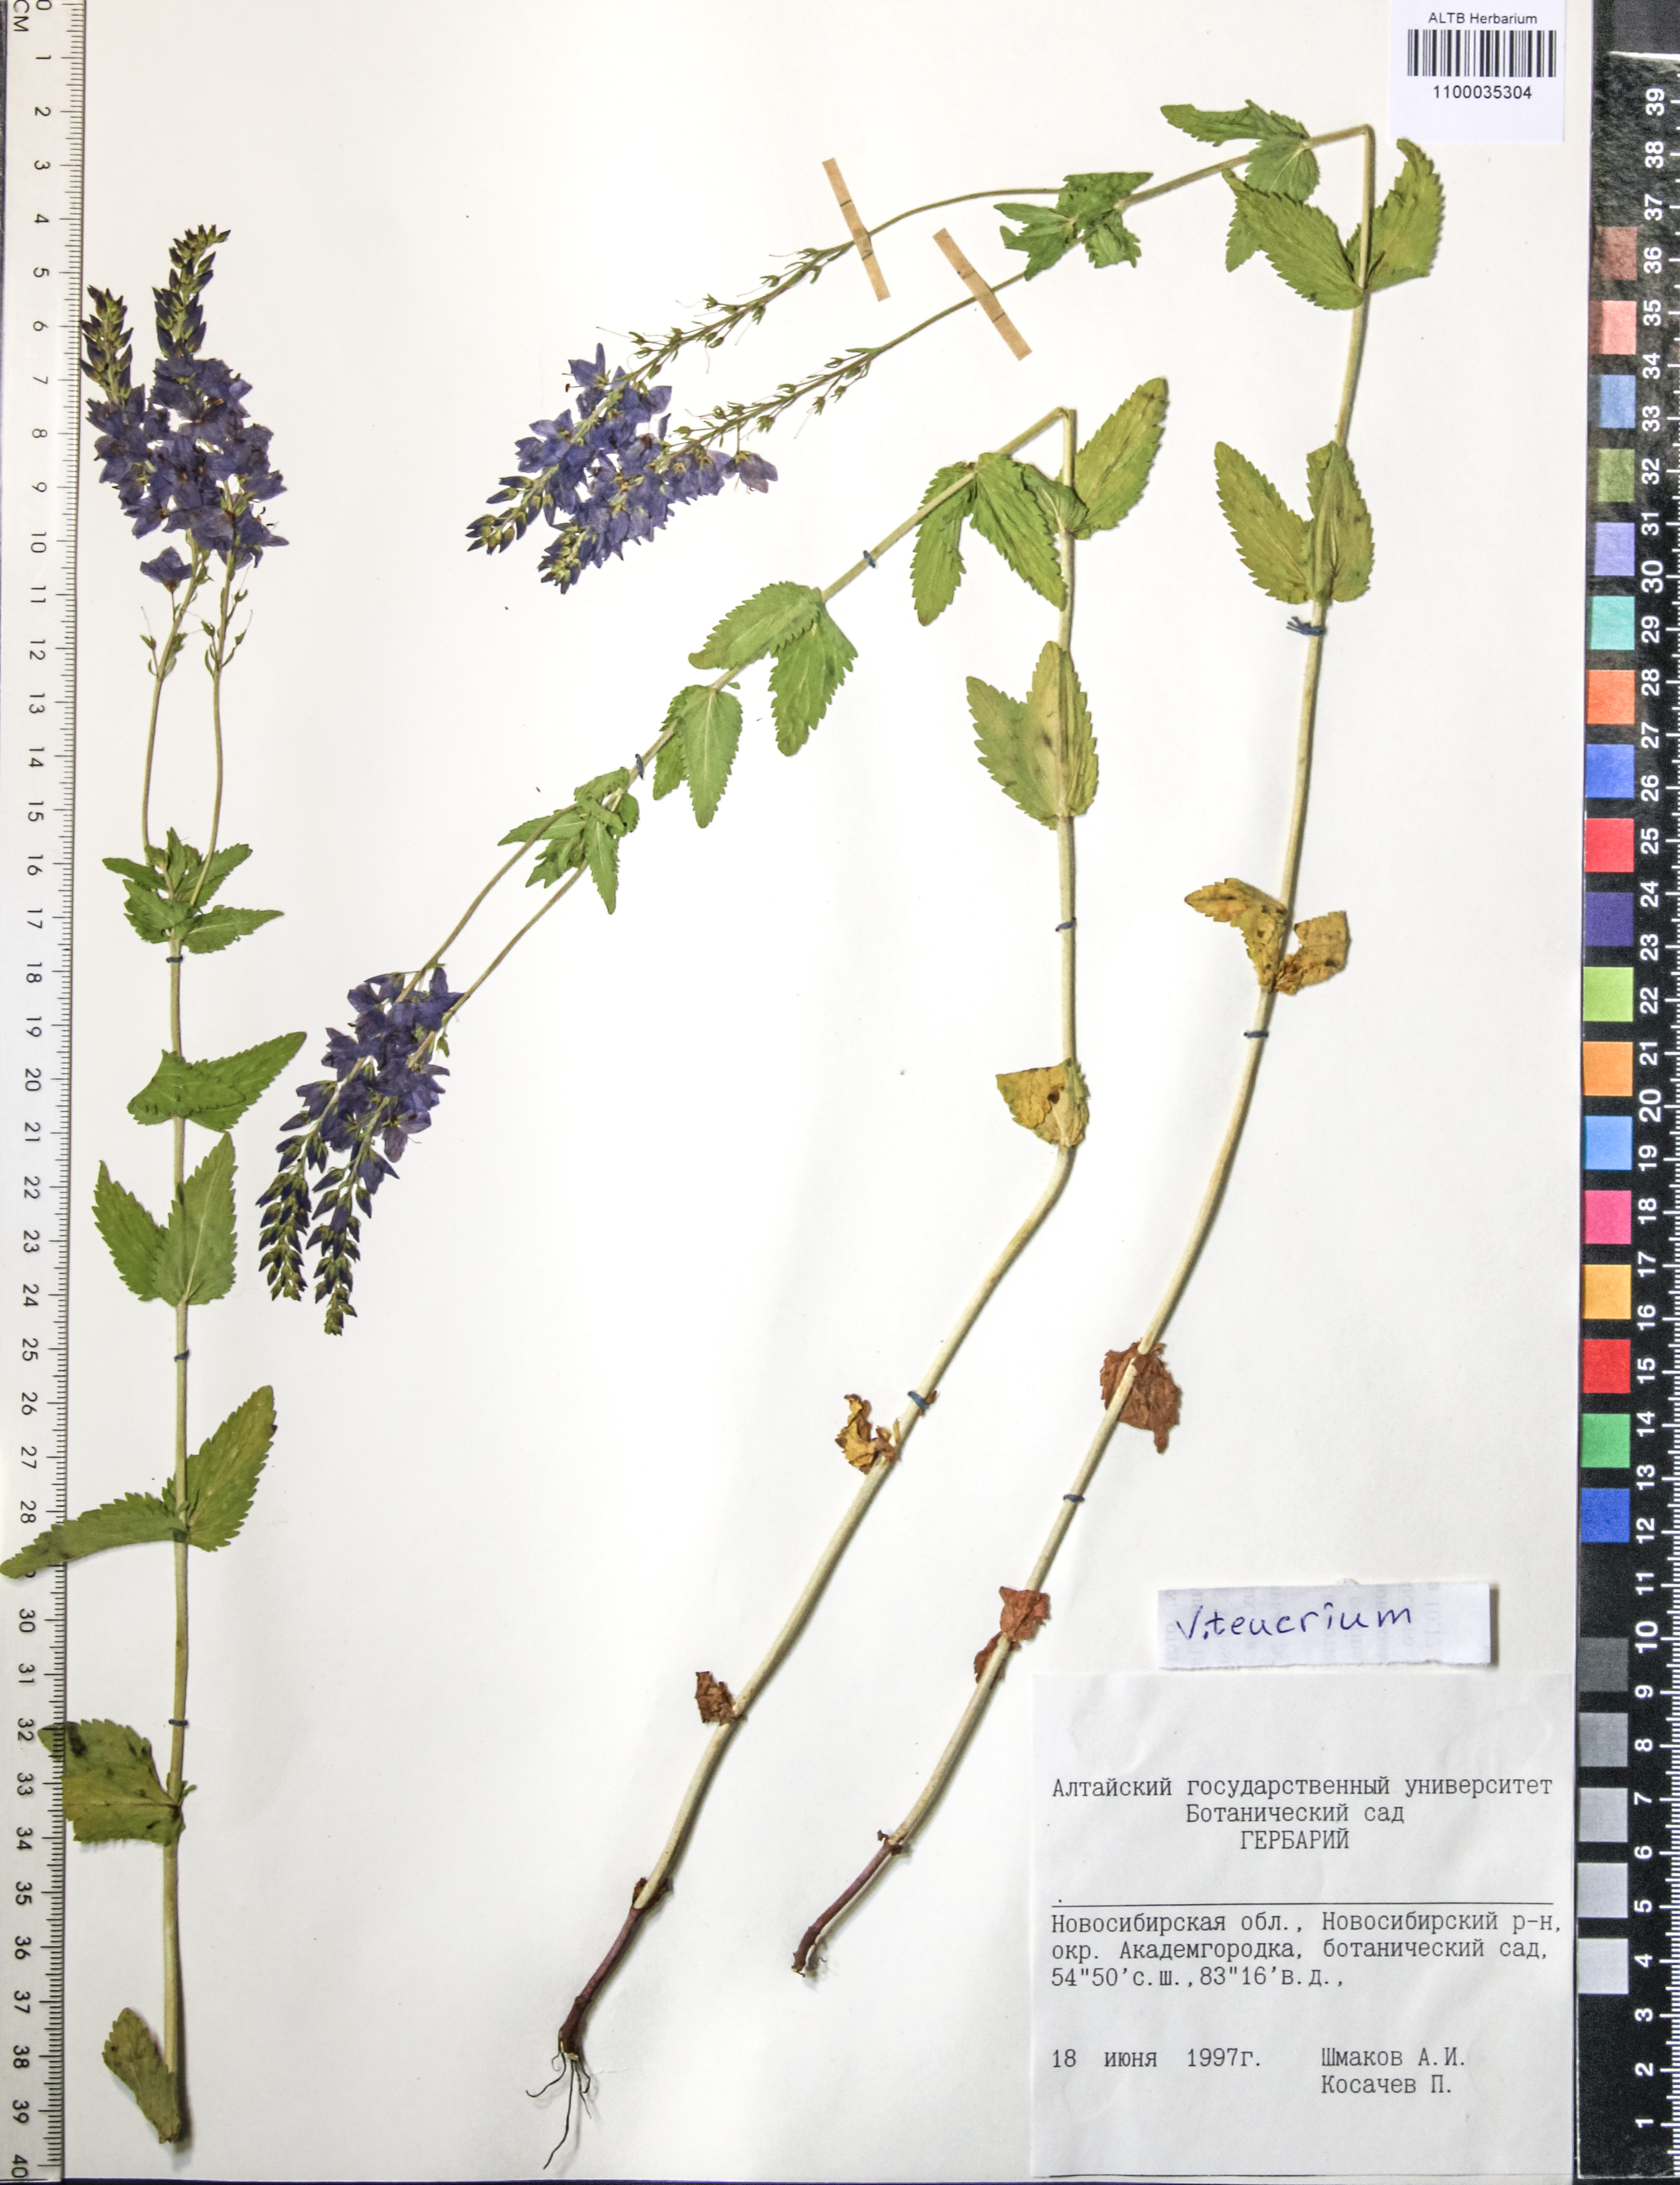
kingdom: Plantae
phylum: Tracheophyta
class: Magnoliopsida
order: Lamiales
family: Plantaginaceae
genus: Veronica
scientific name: Veronica teucrium
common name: Large speedwell
